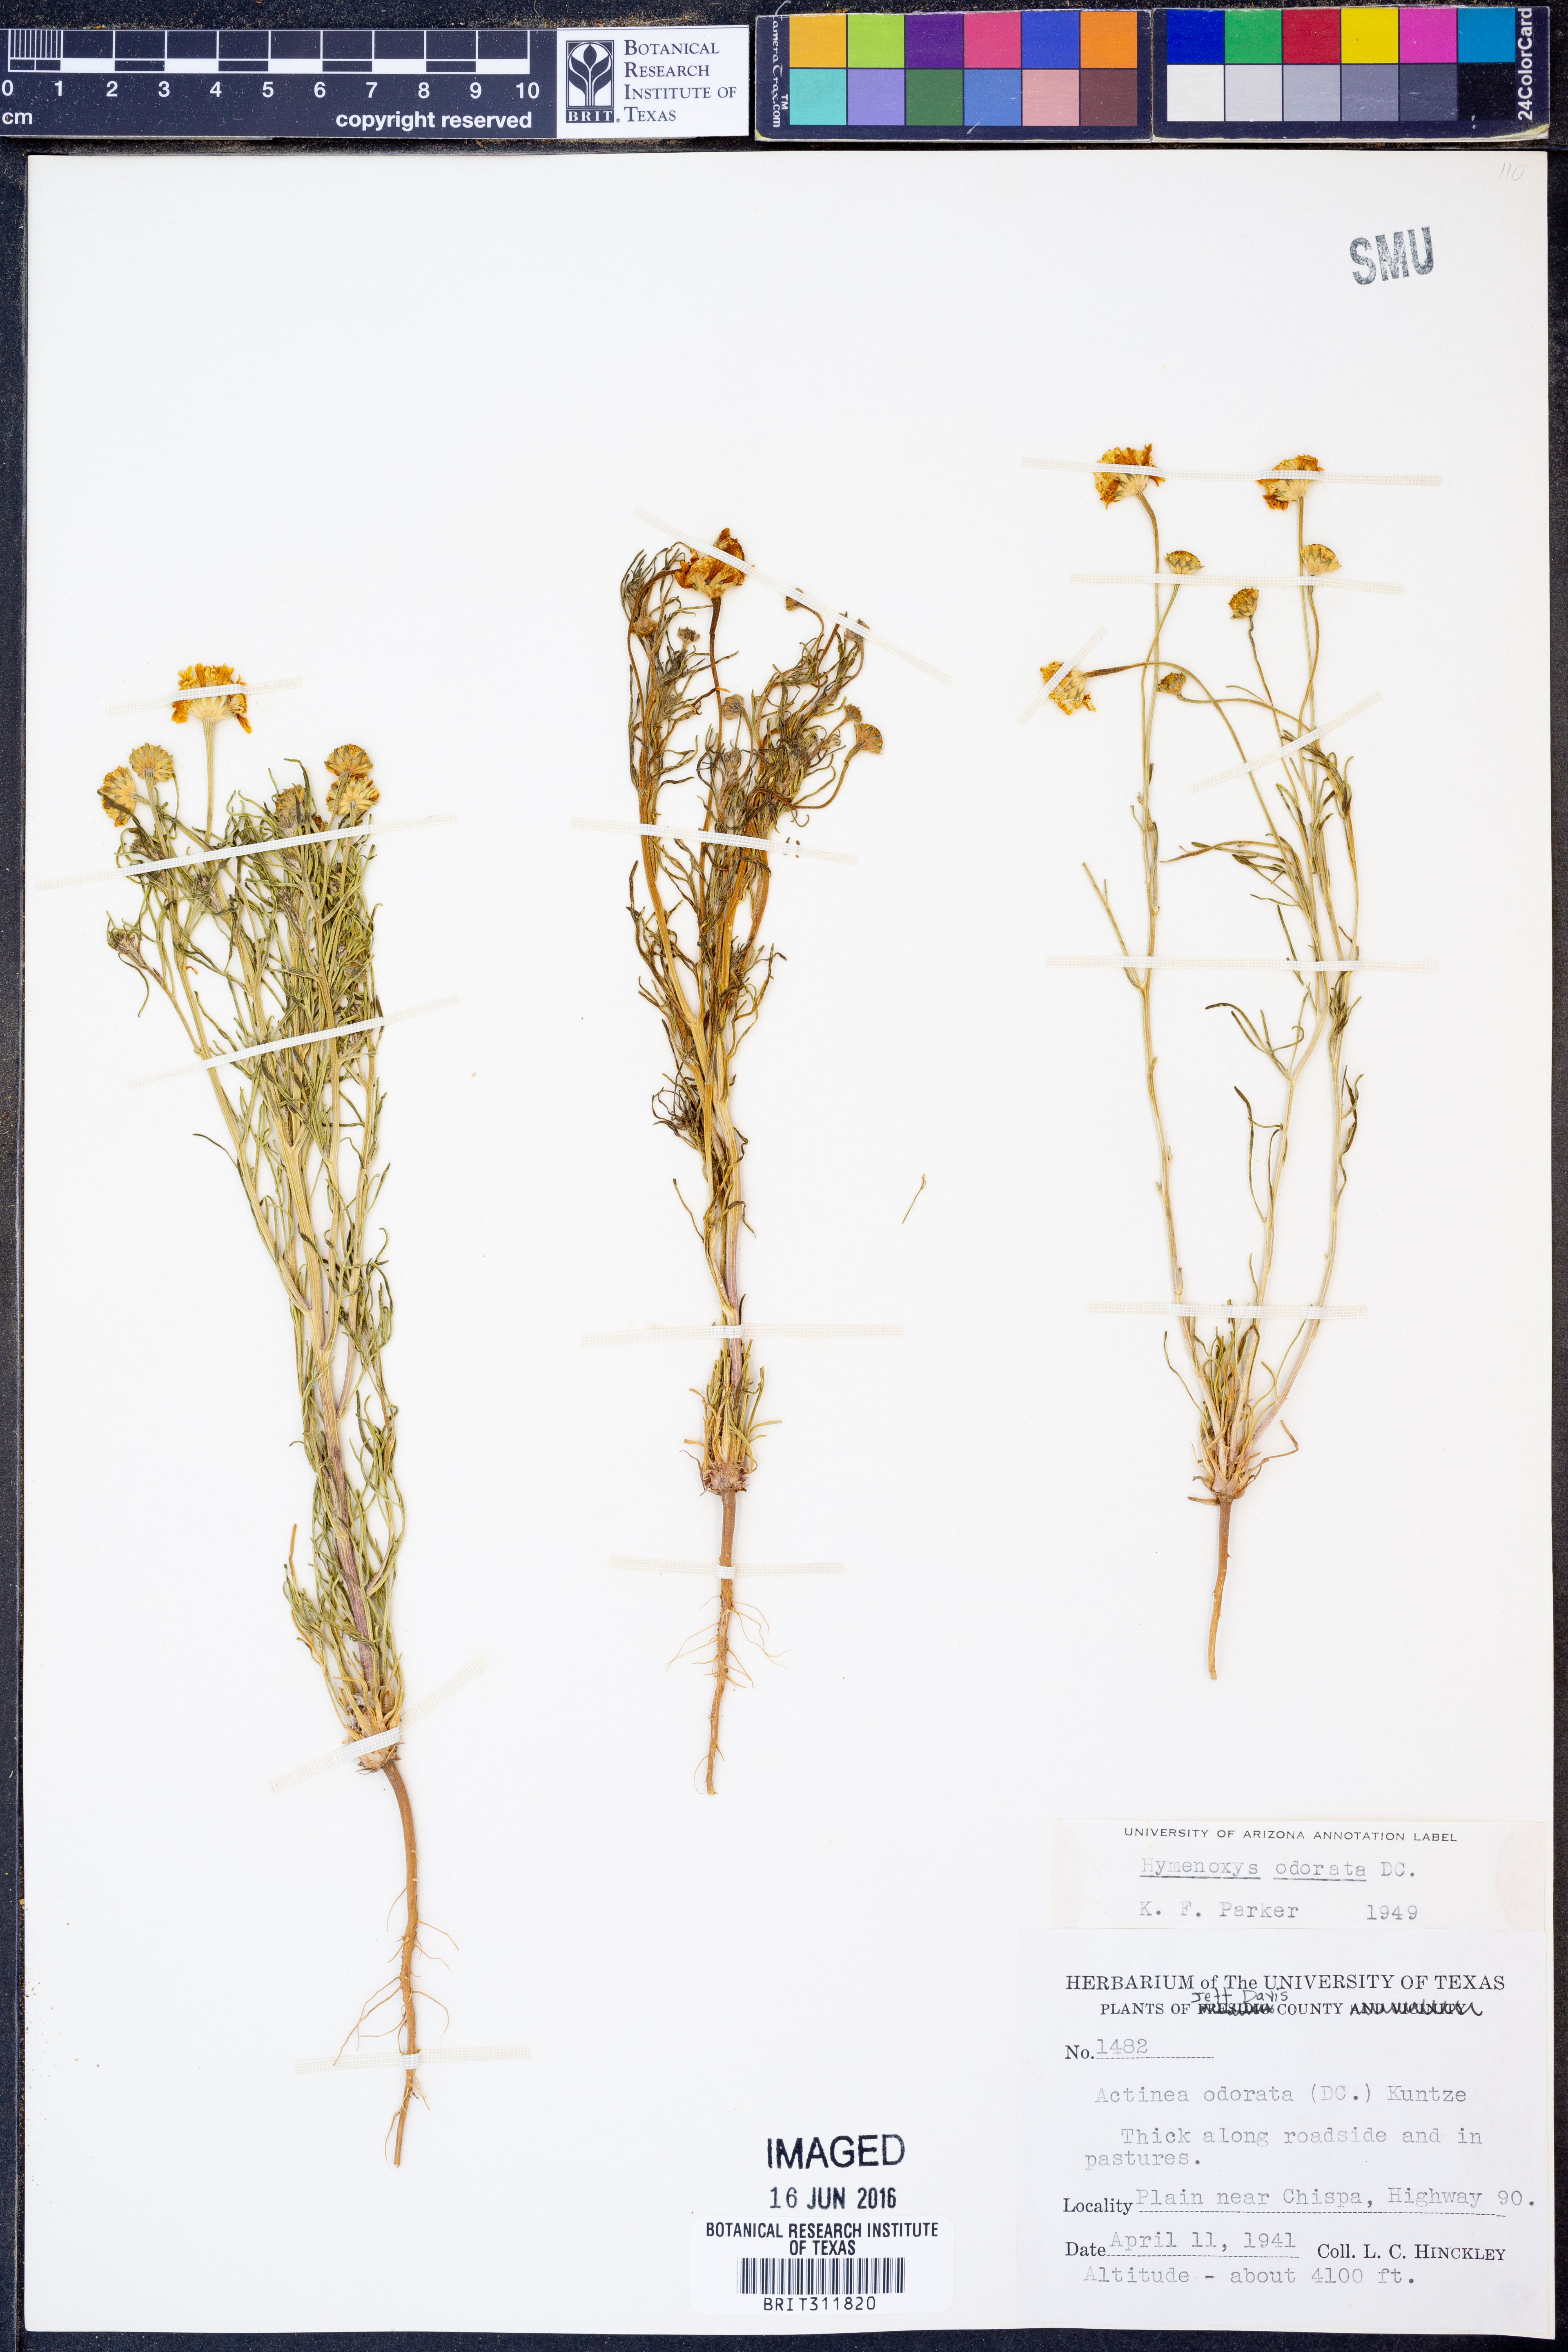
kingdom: Plantae
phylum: Tracheophyta
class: Magnoliopsida
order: Asterales
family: Asteraceae
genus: Hymenoxys
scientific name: Hymenoxys odorata
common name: Bitter rubberweed
